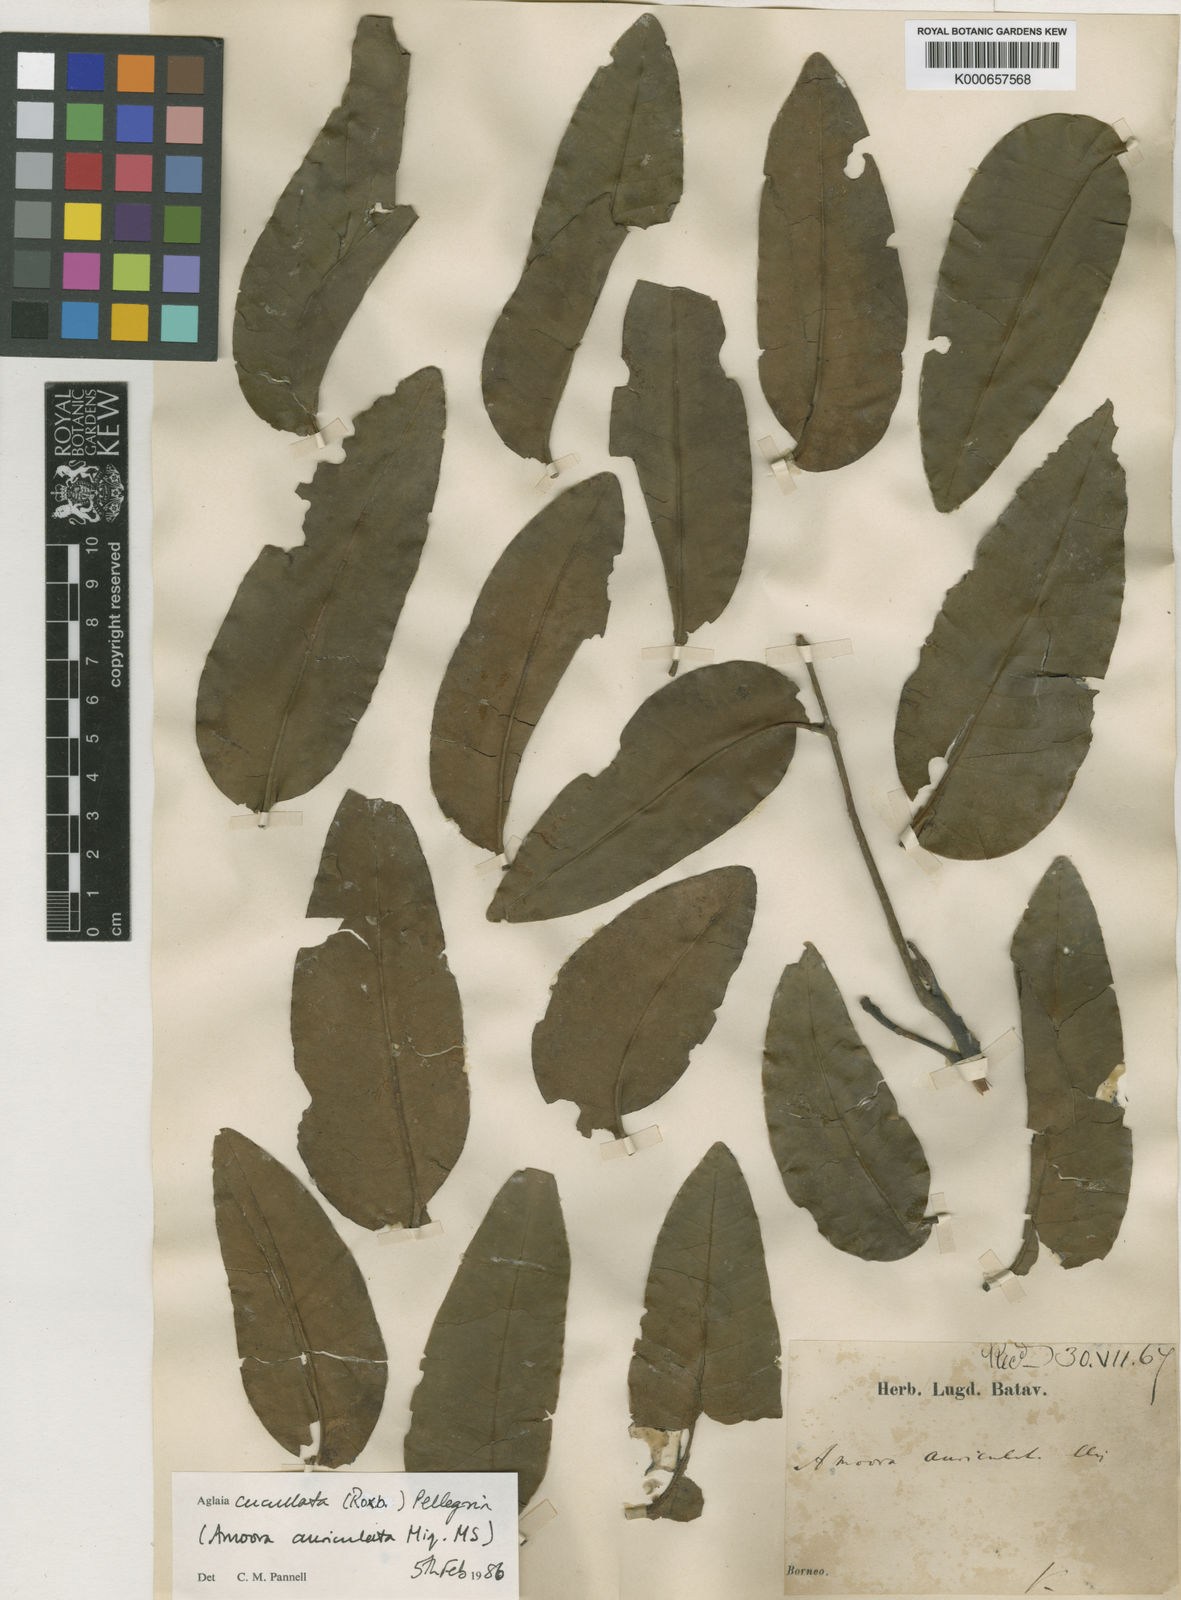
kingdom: Plantae
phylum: Tracheophyta
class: Magnoliopsida
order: Sapindales
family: Meliaceae
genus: Aglaia
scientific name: Aglaia cucullata
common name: Pacific maple
